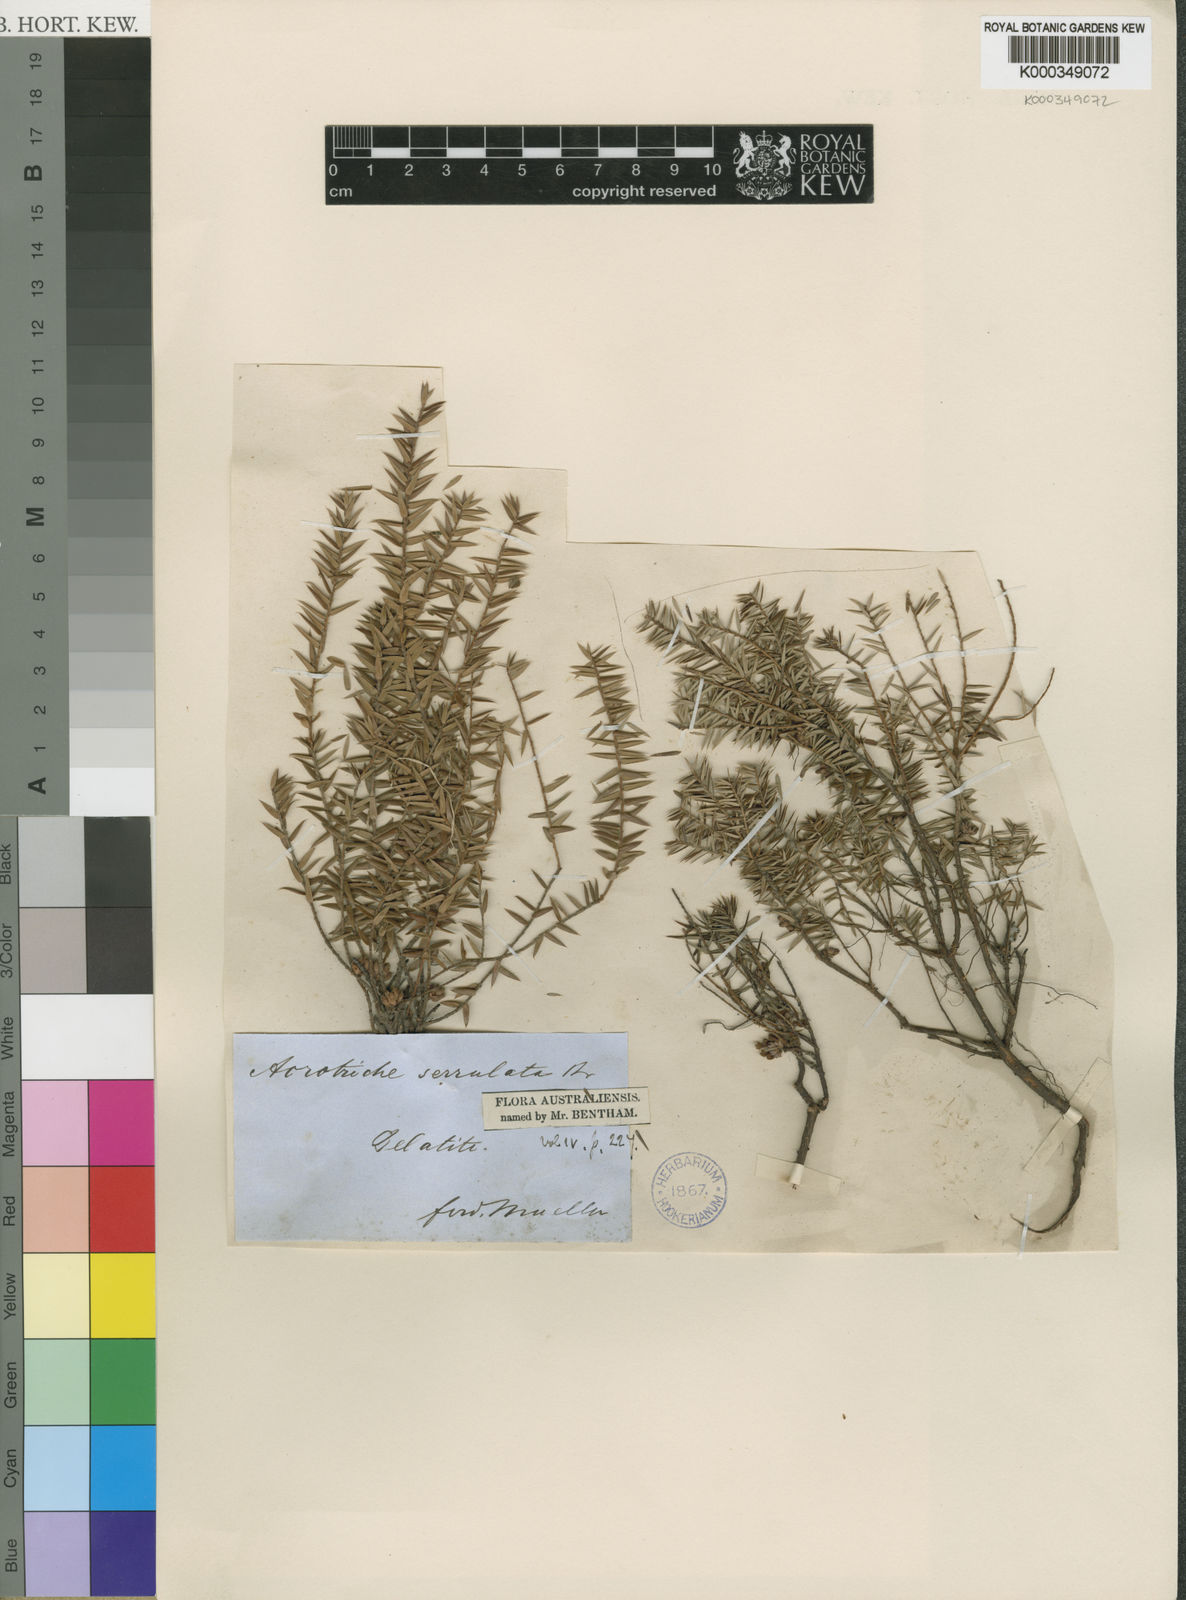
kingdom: Plantae
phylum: Tracheophyta
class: Magnoliopsida
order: Ericales
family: Ericaceae
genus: Acrotriche
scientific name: Acrotriche serrulata
